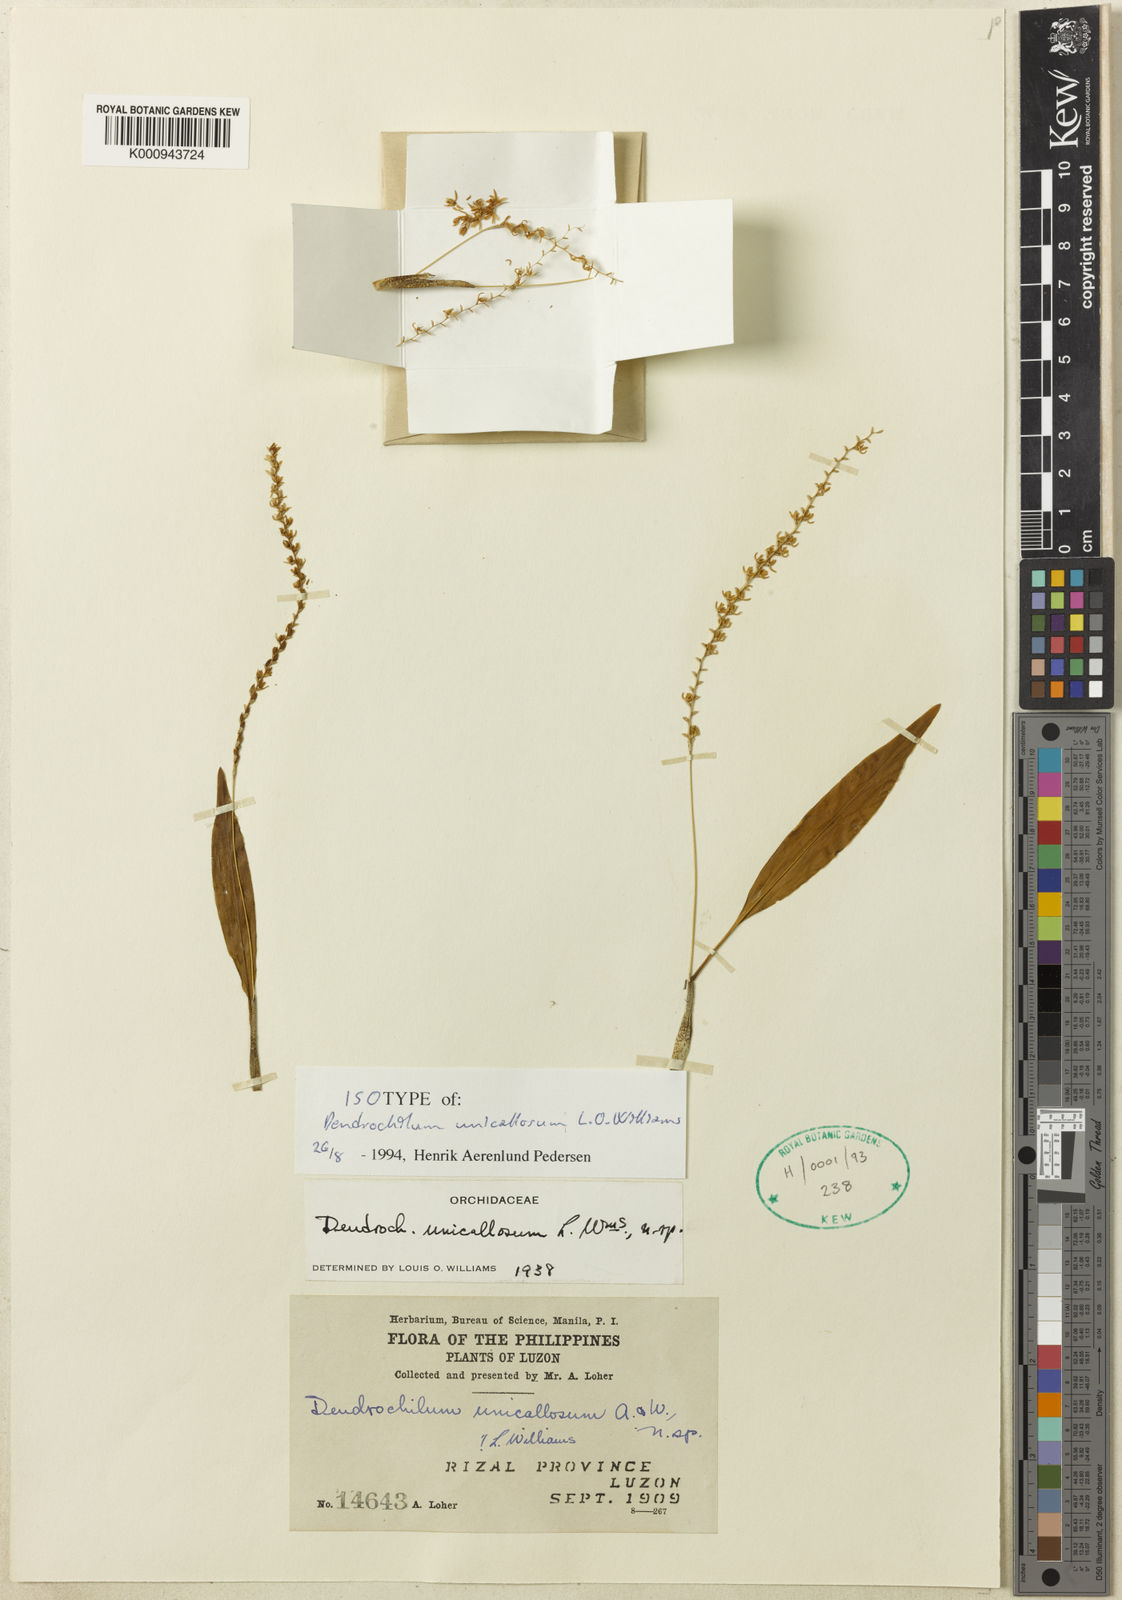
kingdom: Plantae
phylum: Tracheophyta
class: Liliopsida
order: Asparagales
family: Orchidaceae
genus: Coelogyne
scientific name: Coelogyne unicallosa
